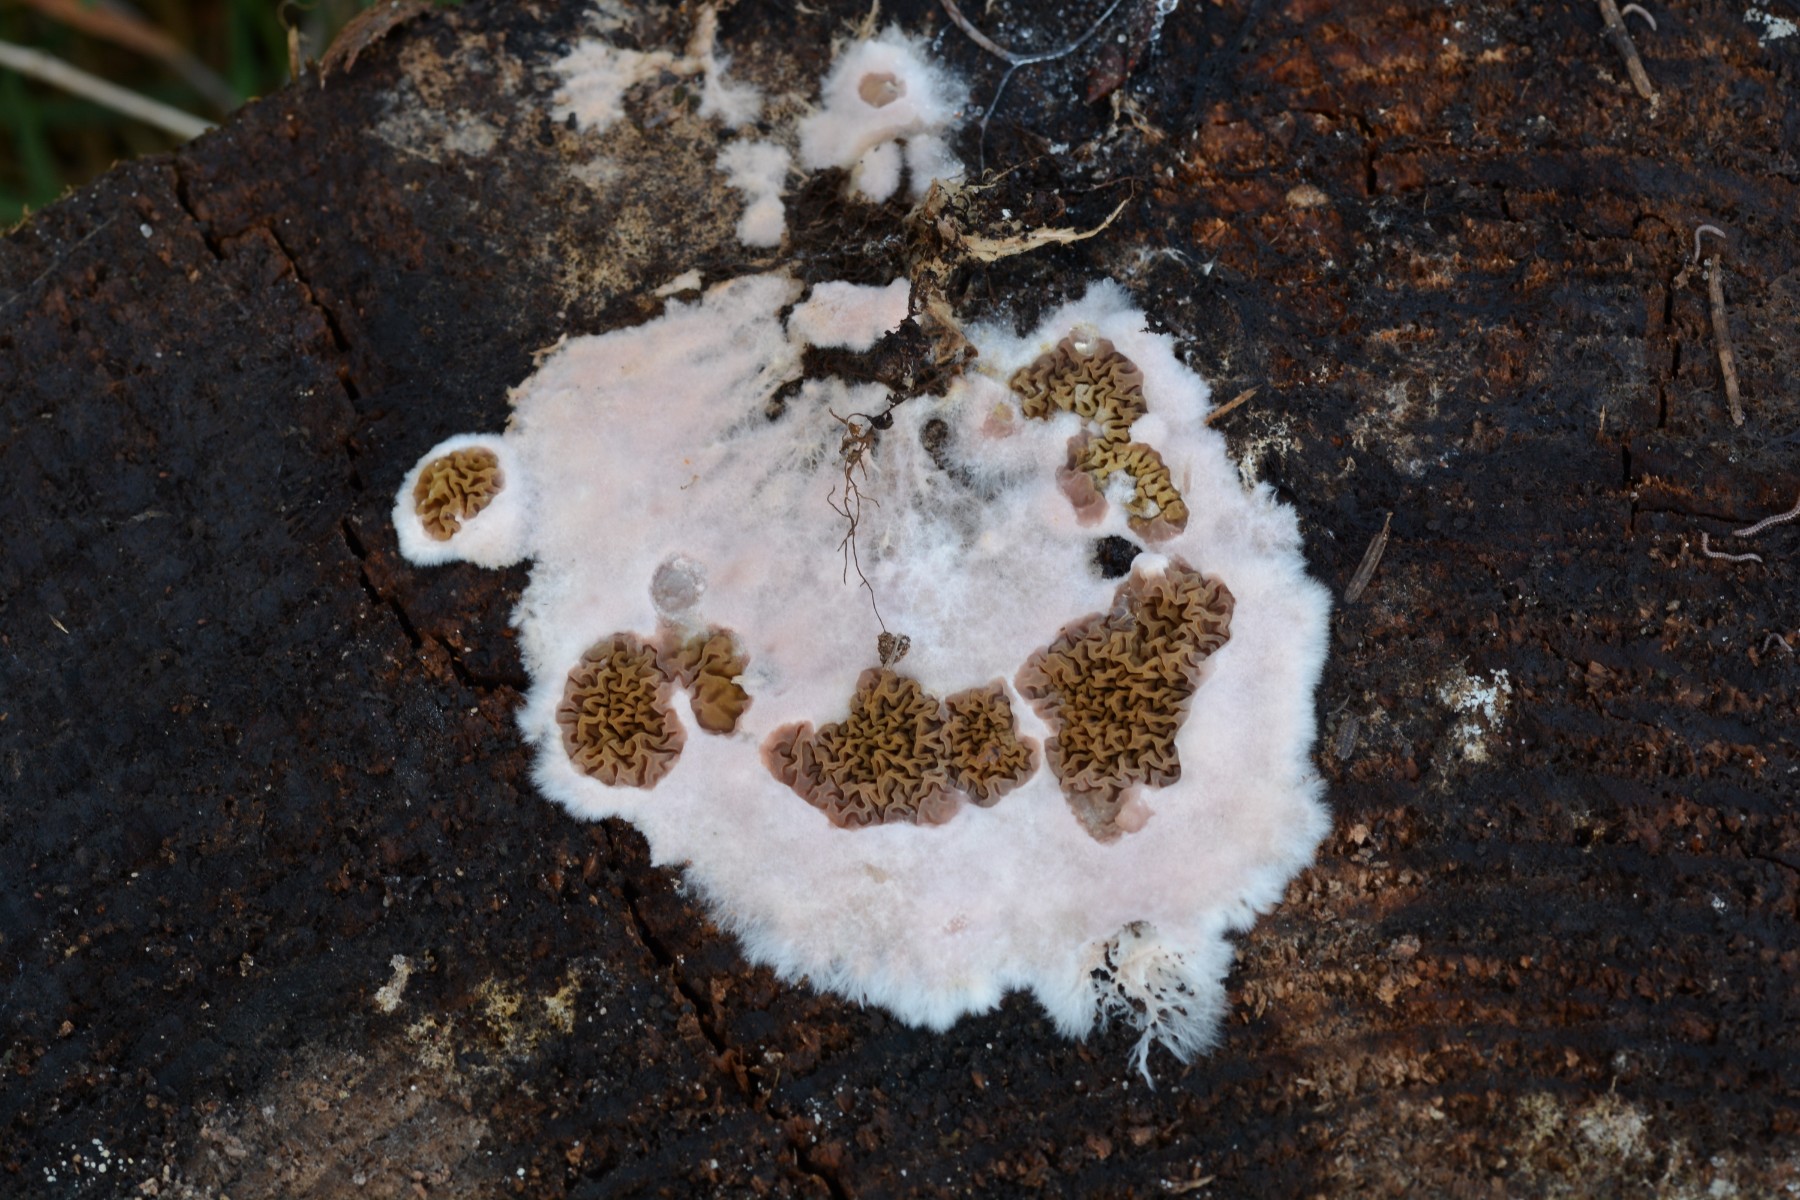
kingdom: Fungi
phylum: Basidiomycota
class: Agaricomycetes
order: Boletales
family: Serpulaceae
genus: Serpula
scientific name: Serpula himantioides
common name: tyndkødet hussvamp
